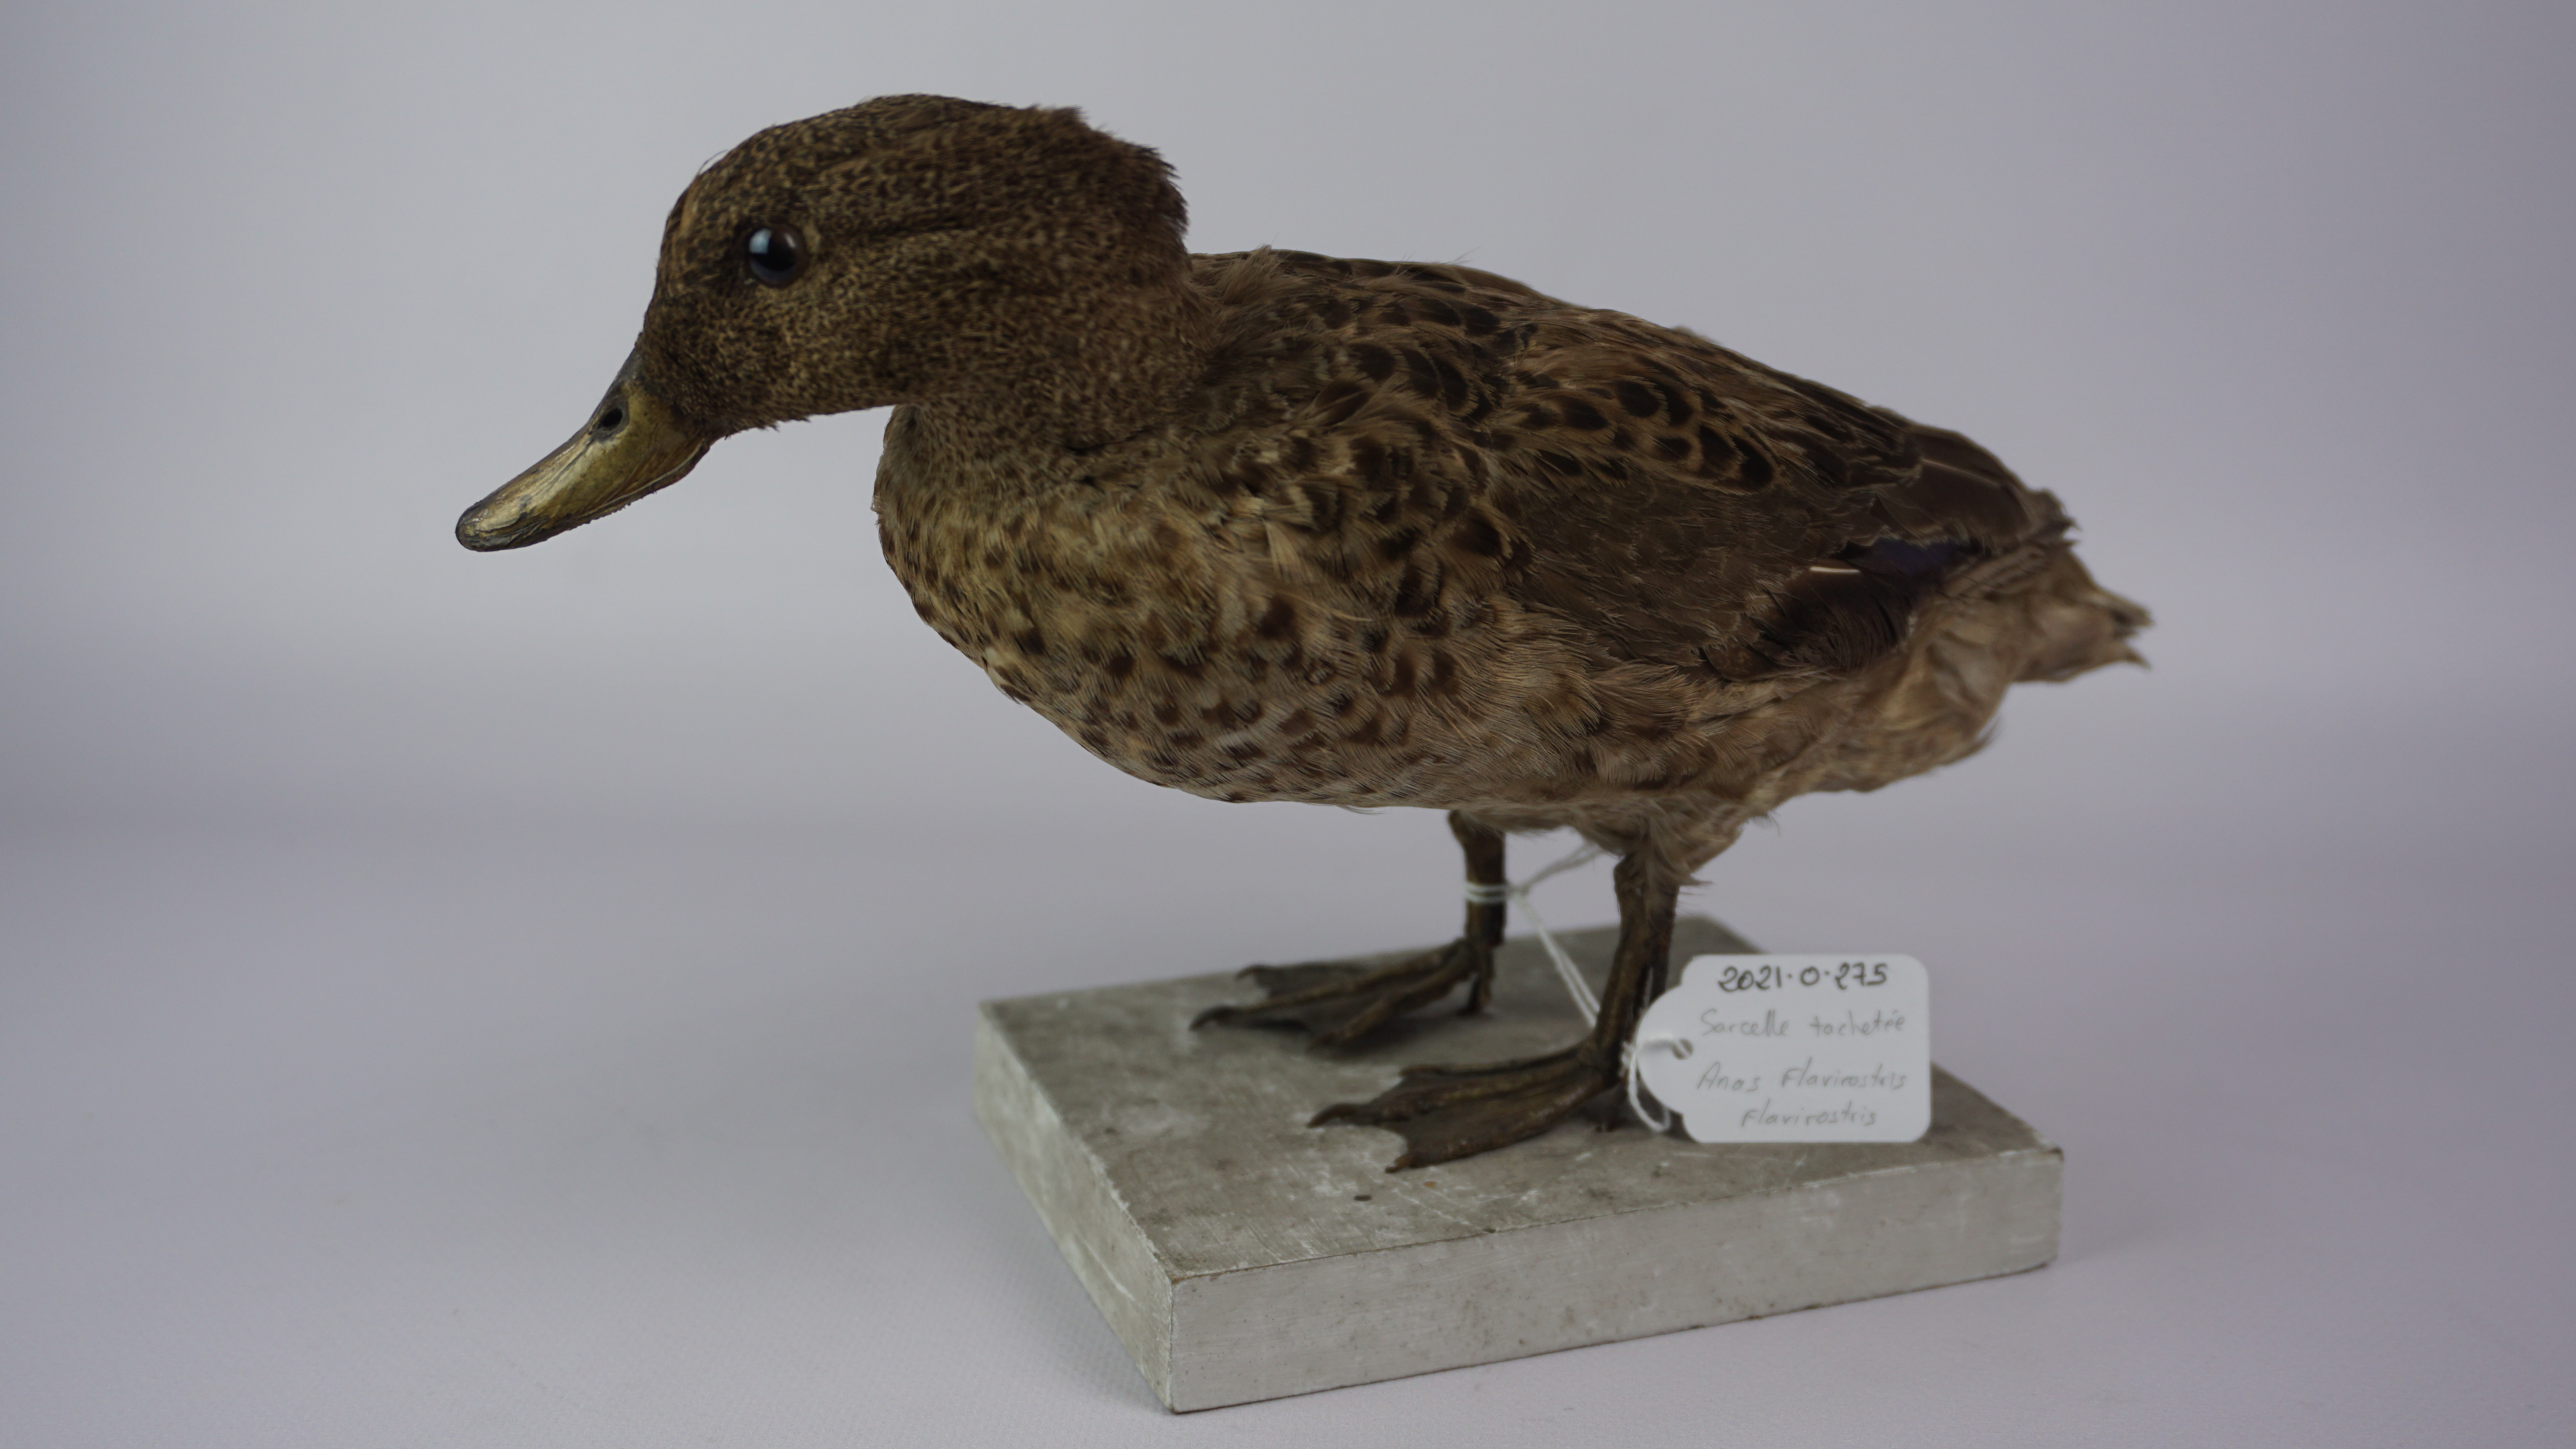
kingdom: Animalia
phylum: Chordata
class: Aves
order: Anseriformes
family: Anatidae
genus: Anas
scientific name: Anas flavirostris
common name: Yellow-billed teal
